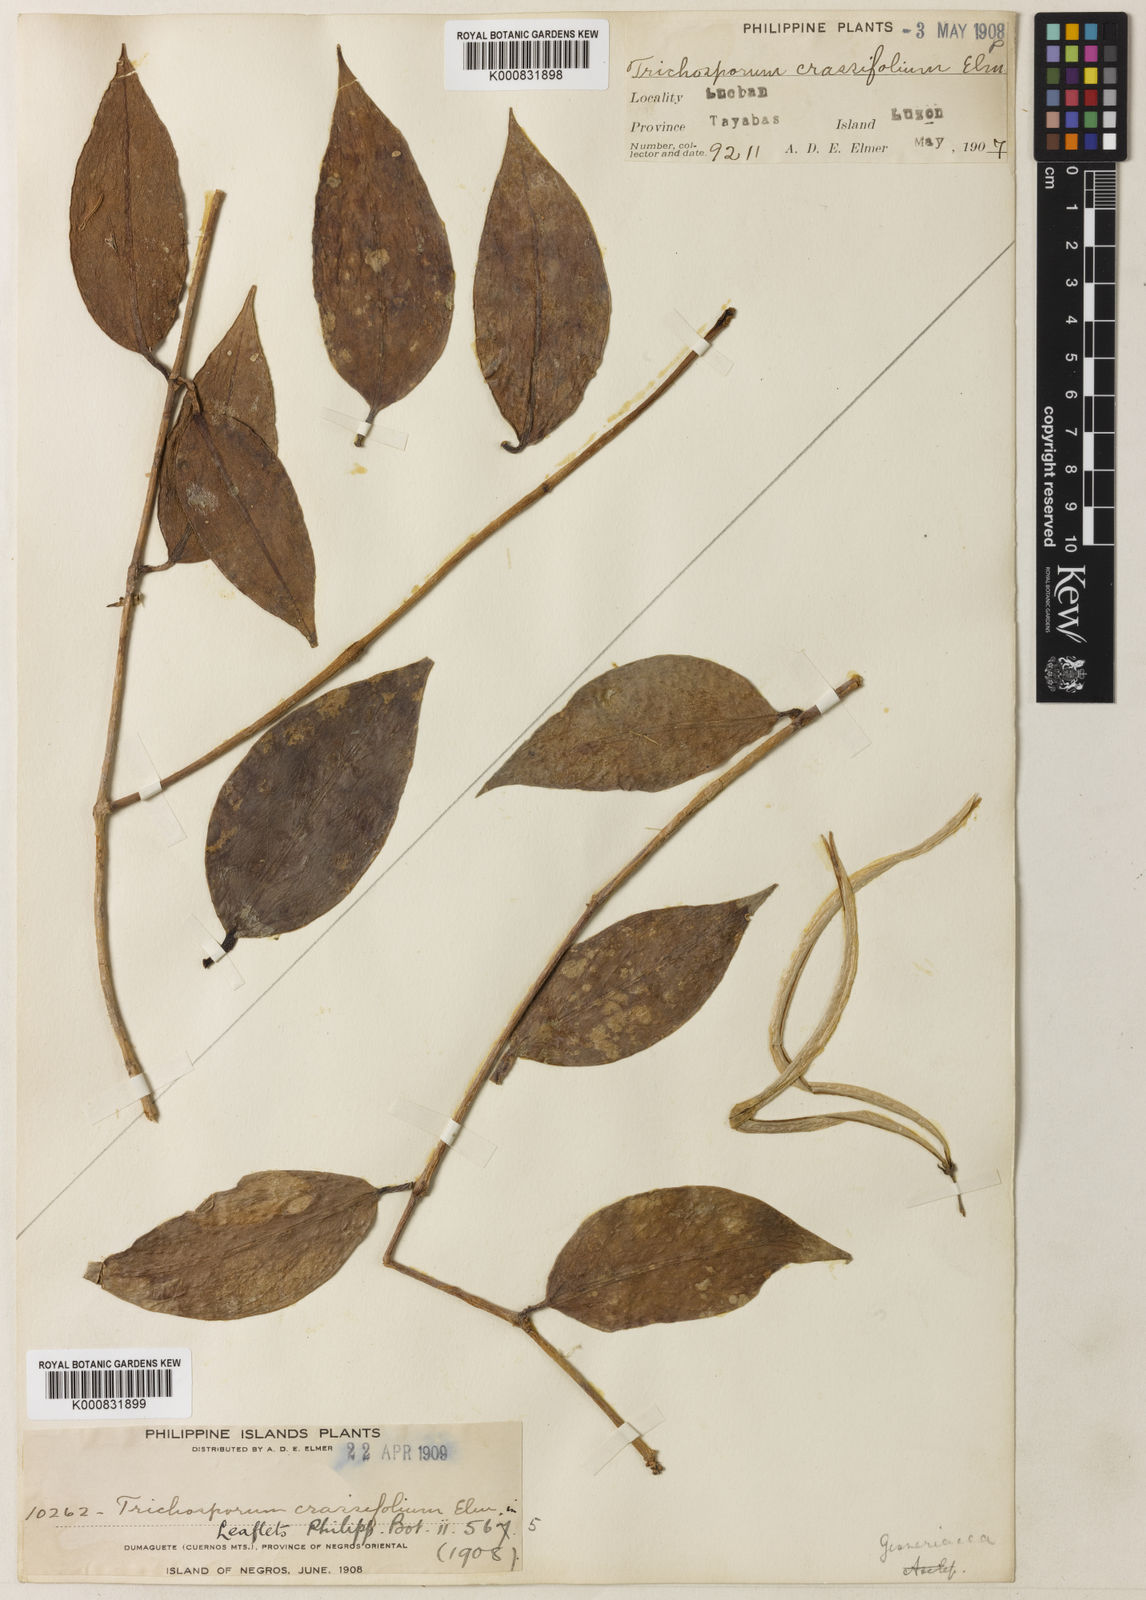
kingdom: Plantae
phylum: Tracheophyta
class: Magnoliopsida
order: Lamiales
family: Gesneriaceae
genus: Aeschynanthus
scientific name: Aeschynanthus crassifolius
